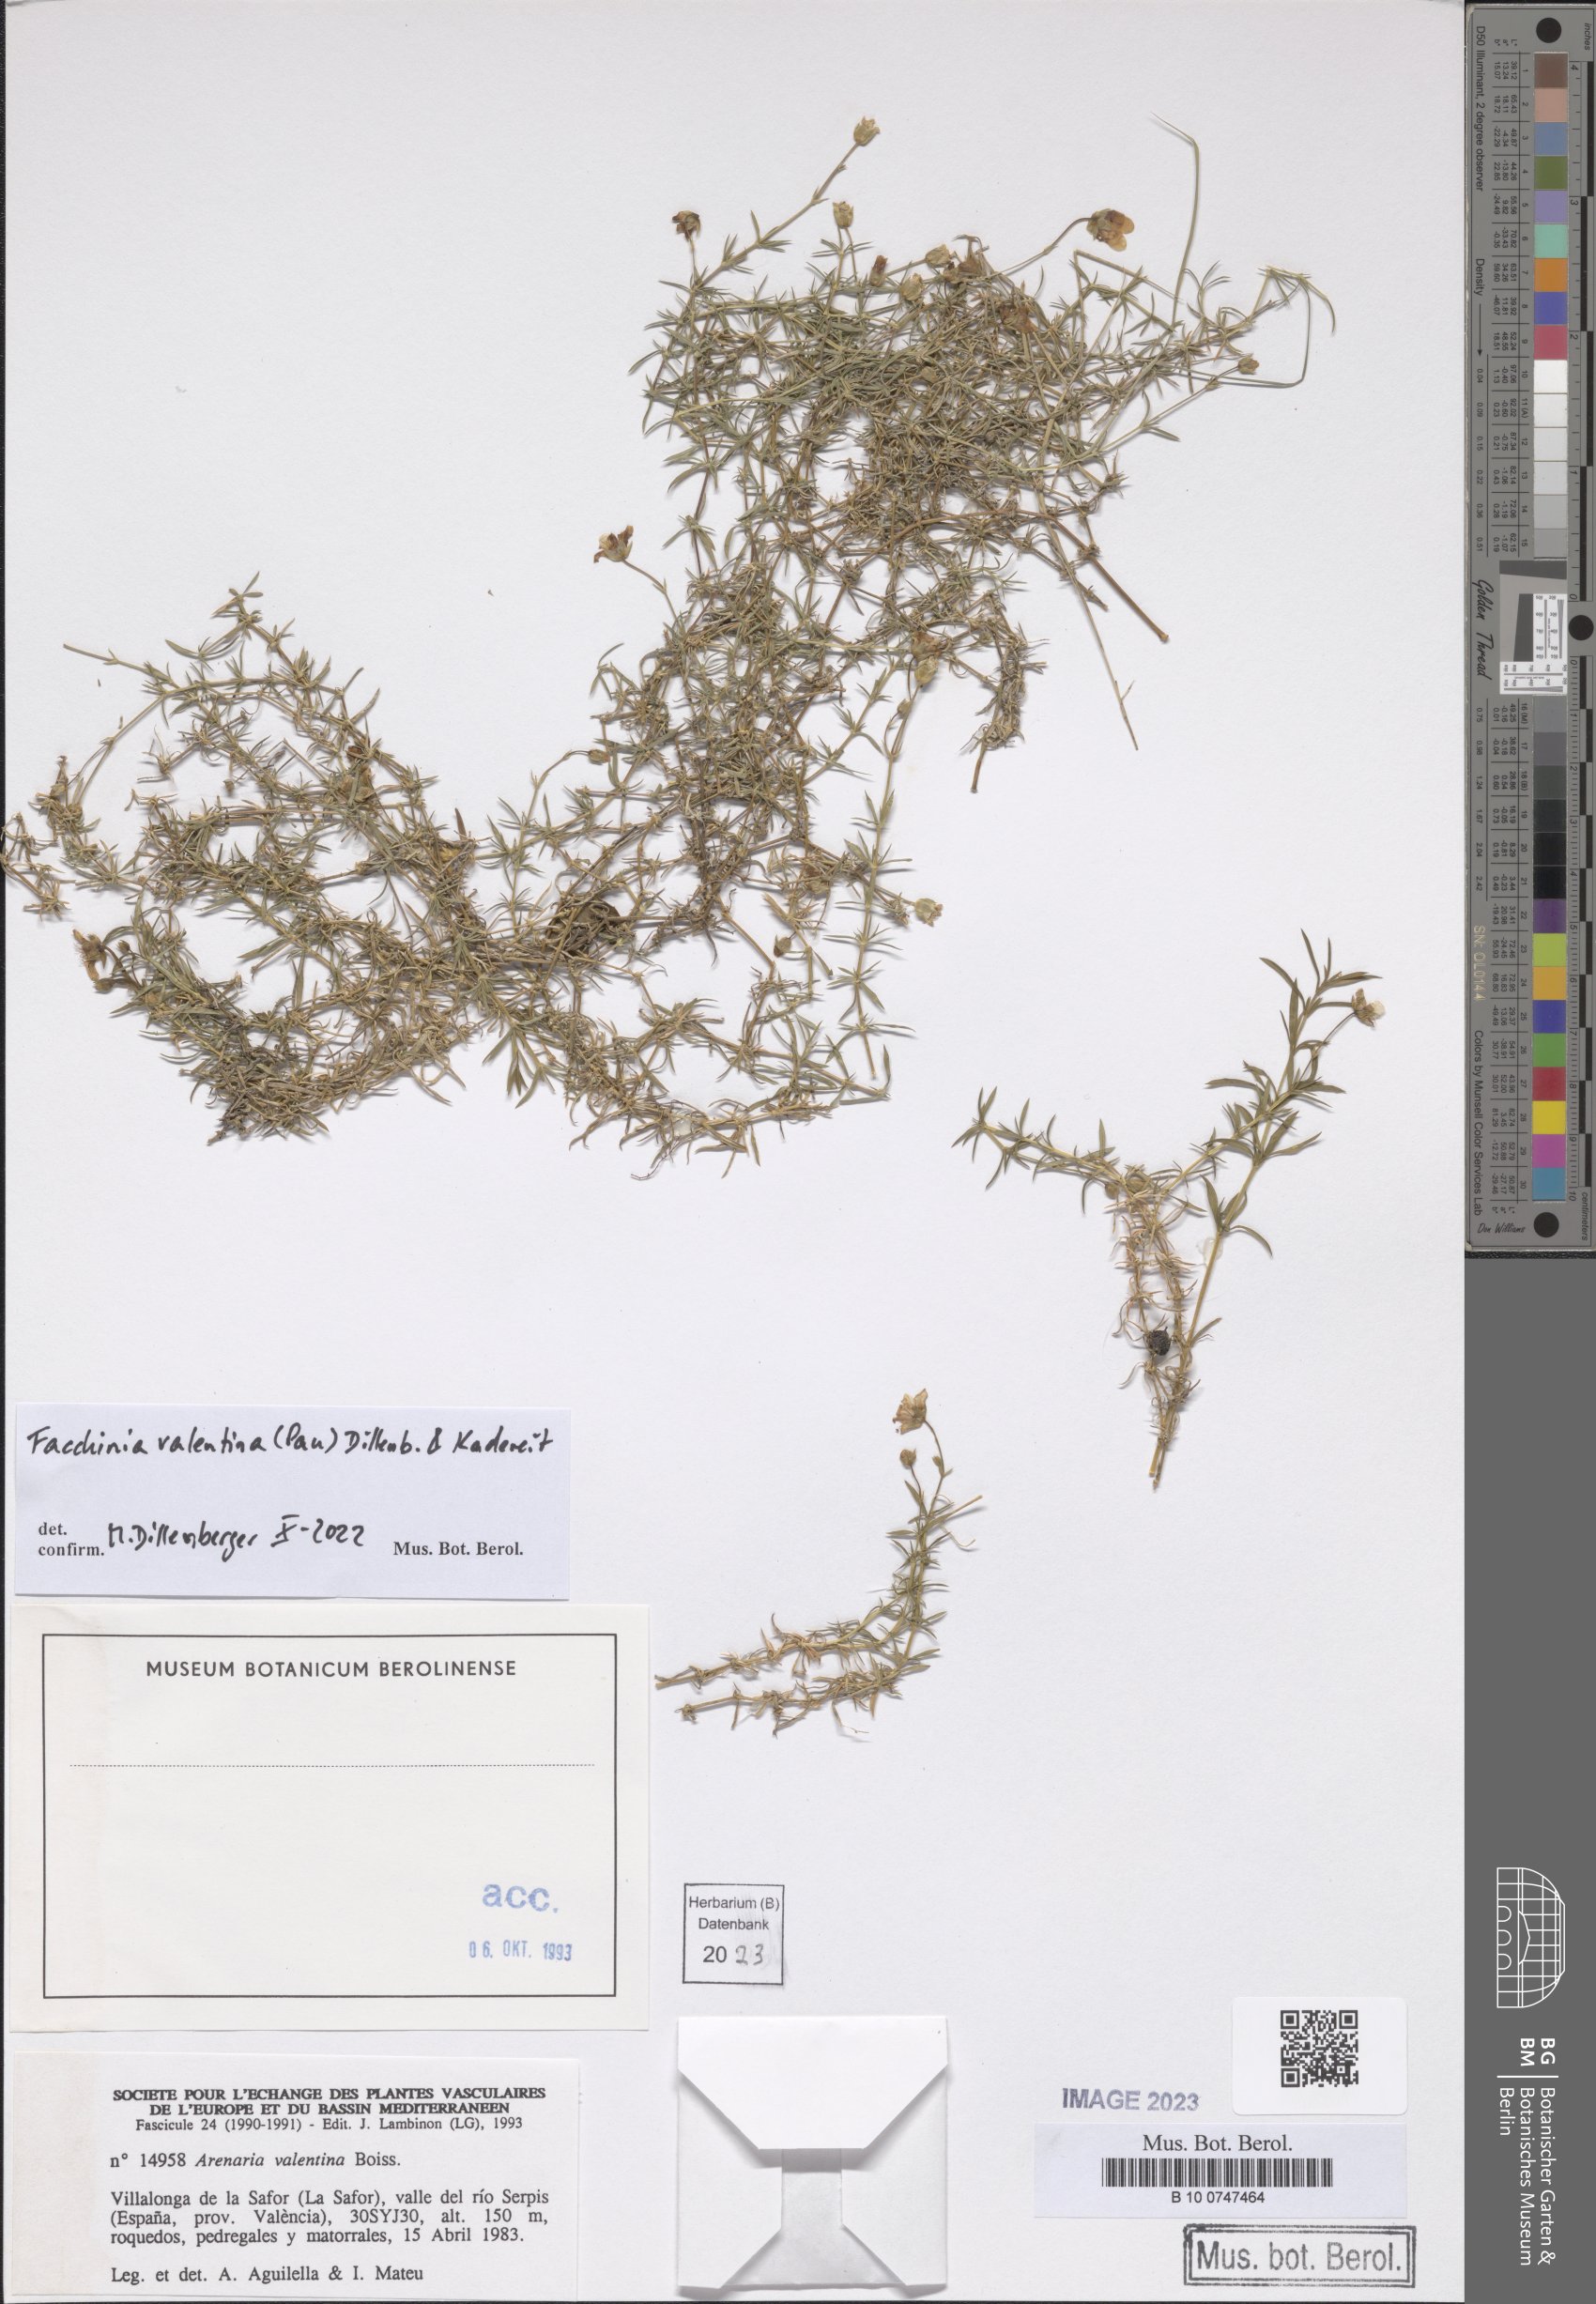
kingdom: Plantae
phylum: Tracheophyta
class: Magnoliopsida
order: Caryophyllales
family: Caryophyllaceae
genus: Facchinia
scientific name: Facchinia valentina
